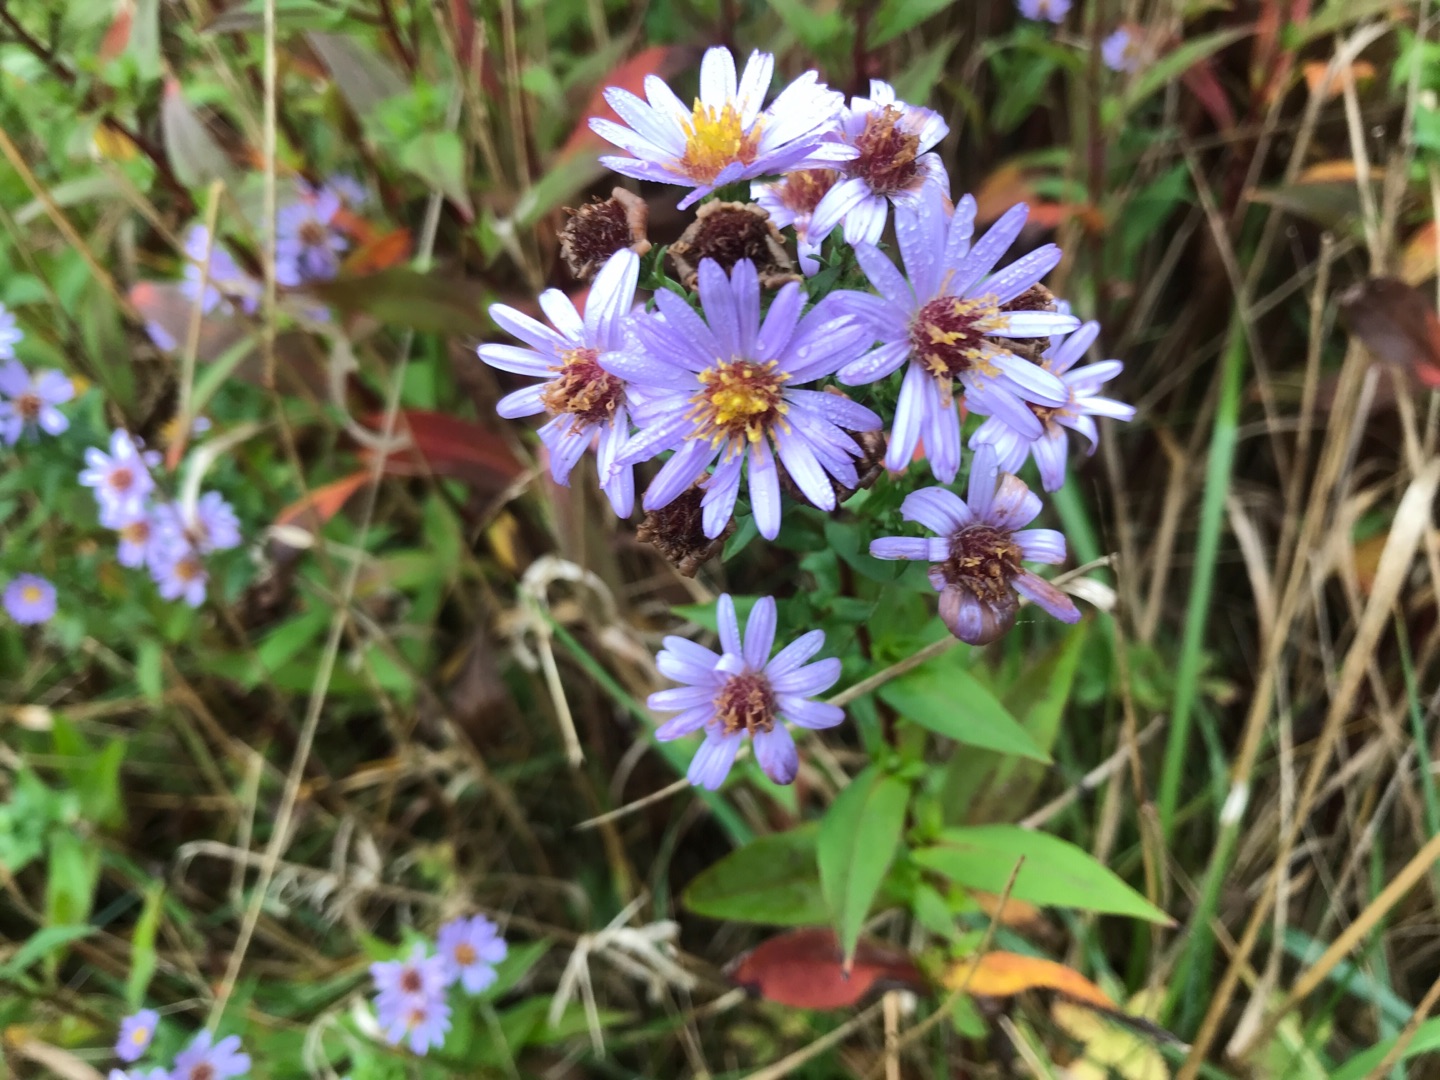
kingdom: Plantae
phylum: Tracheophyta
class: Magnoliopsida
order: Asterales
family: Asteraceae
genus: Symphyotrichum
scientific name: Symphyotrichum
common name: Asters (Symphyotrichum-slægten)
